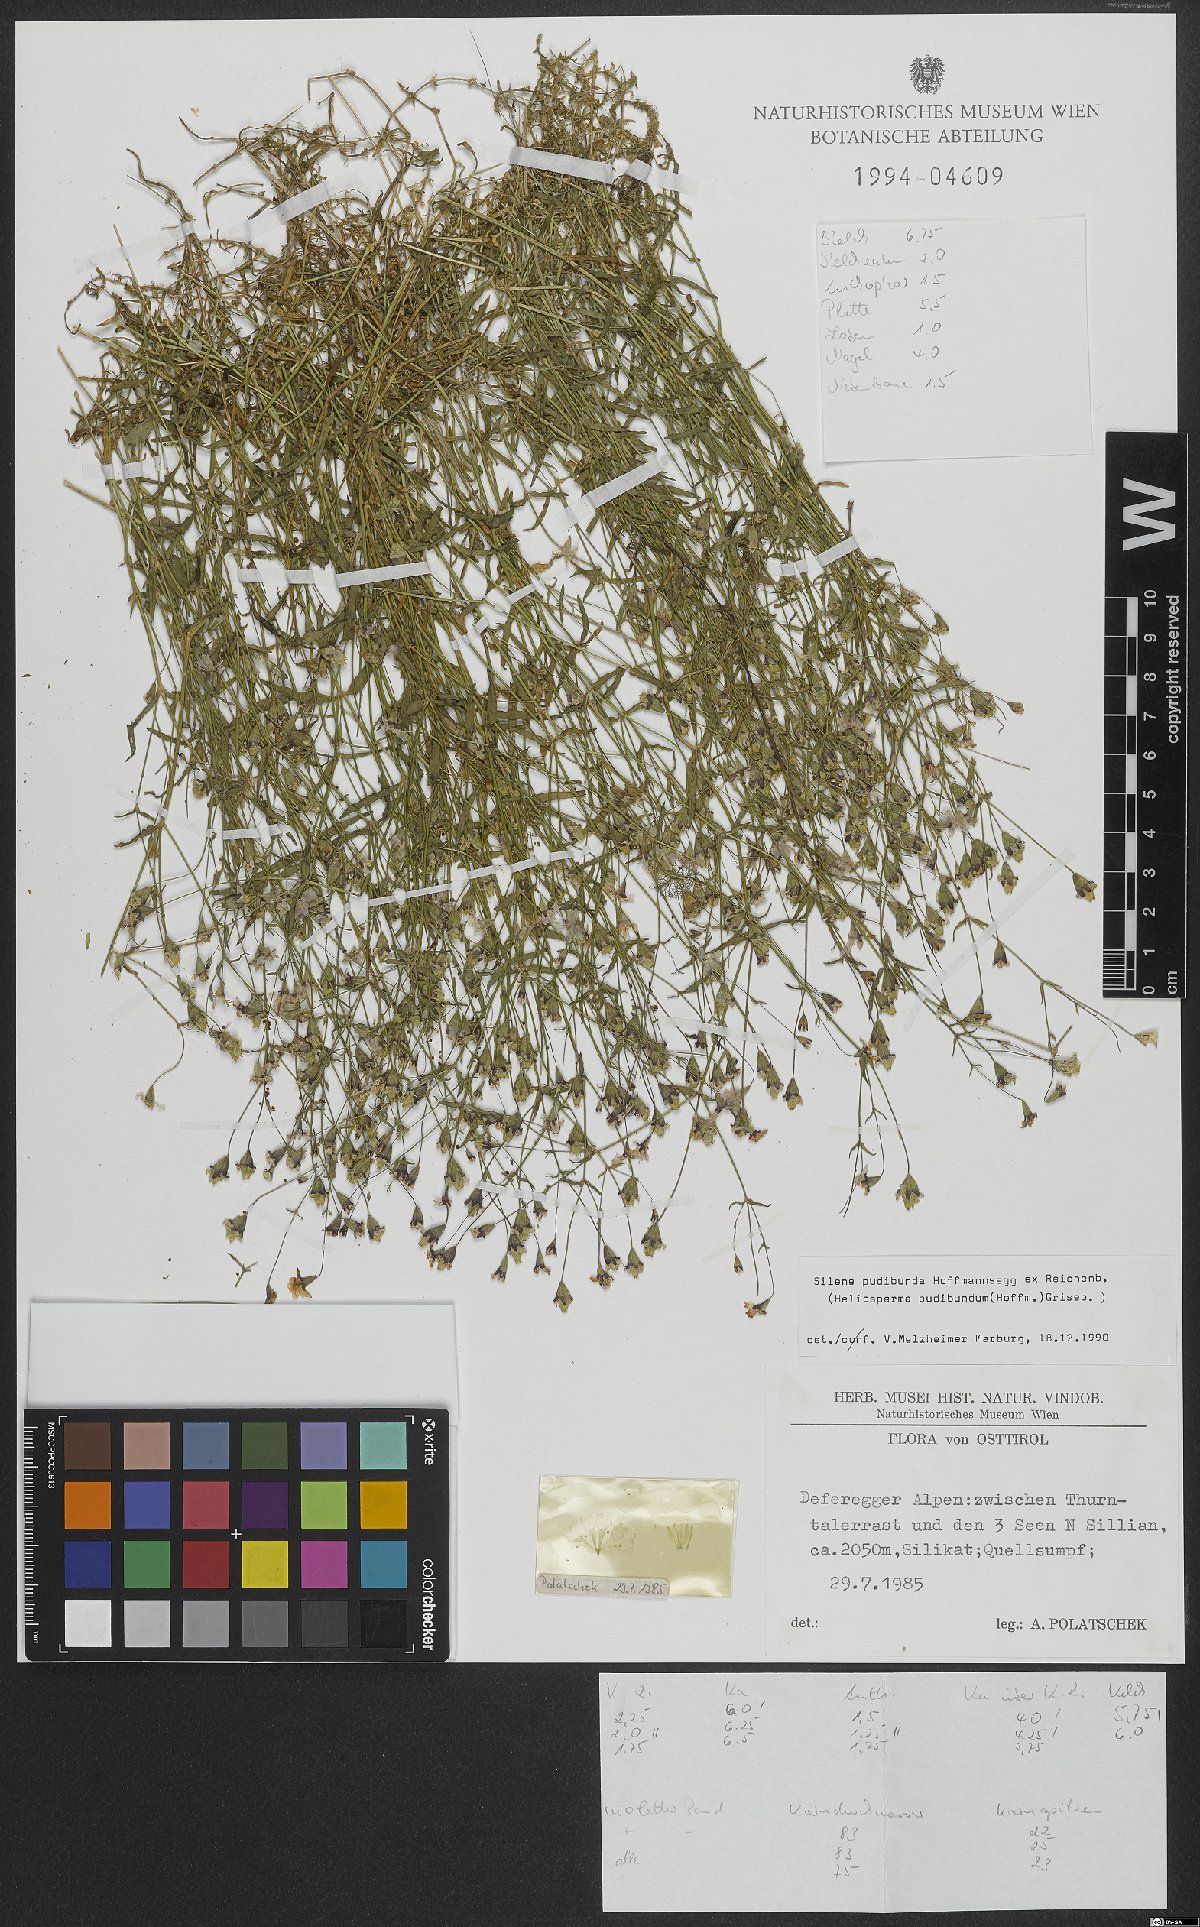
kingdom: Plantae
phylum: Tracheophyta
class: Magnoliopsida
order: Caryophyllales
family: Caryophyllaceae
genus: Heliosperma
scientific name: Heliosperma pudibundum
